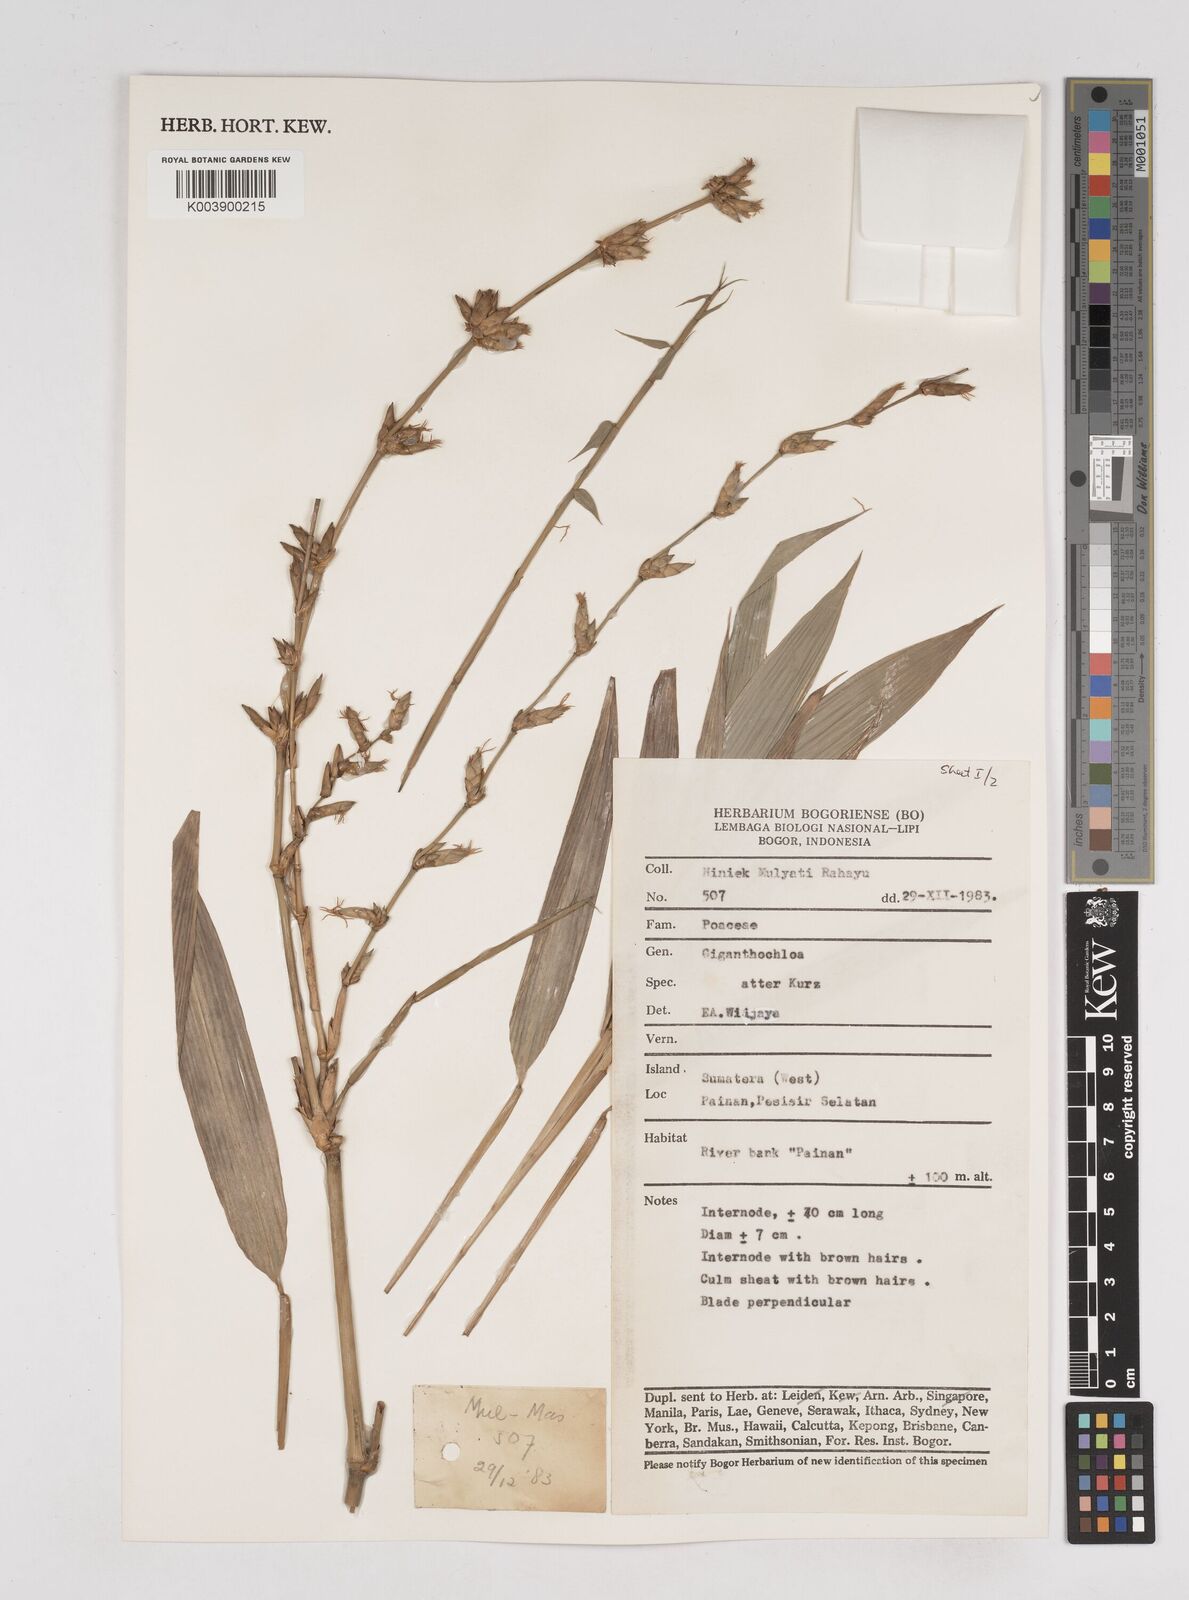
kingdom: Plantae
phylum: Tracheophyta
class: Liliopsida
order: Poales
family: Poaceae
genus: Gigantochloa
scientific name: Gigantochloa atter
